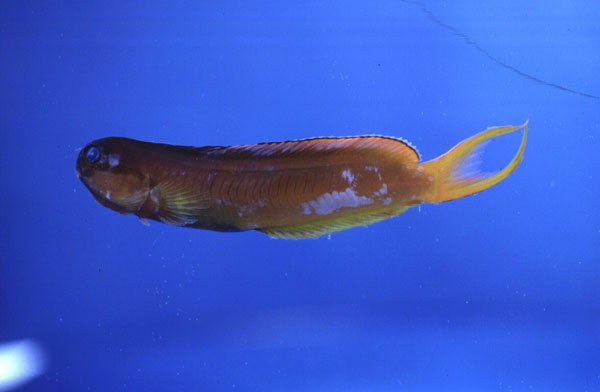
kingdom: Animalia
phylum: Chordata
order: Perciformes
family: Blenniidae
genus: Ecsenius
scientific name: Ecsenius midas
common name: Golden blenny
